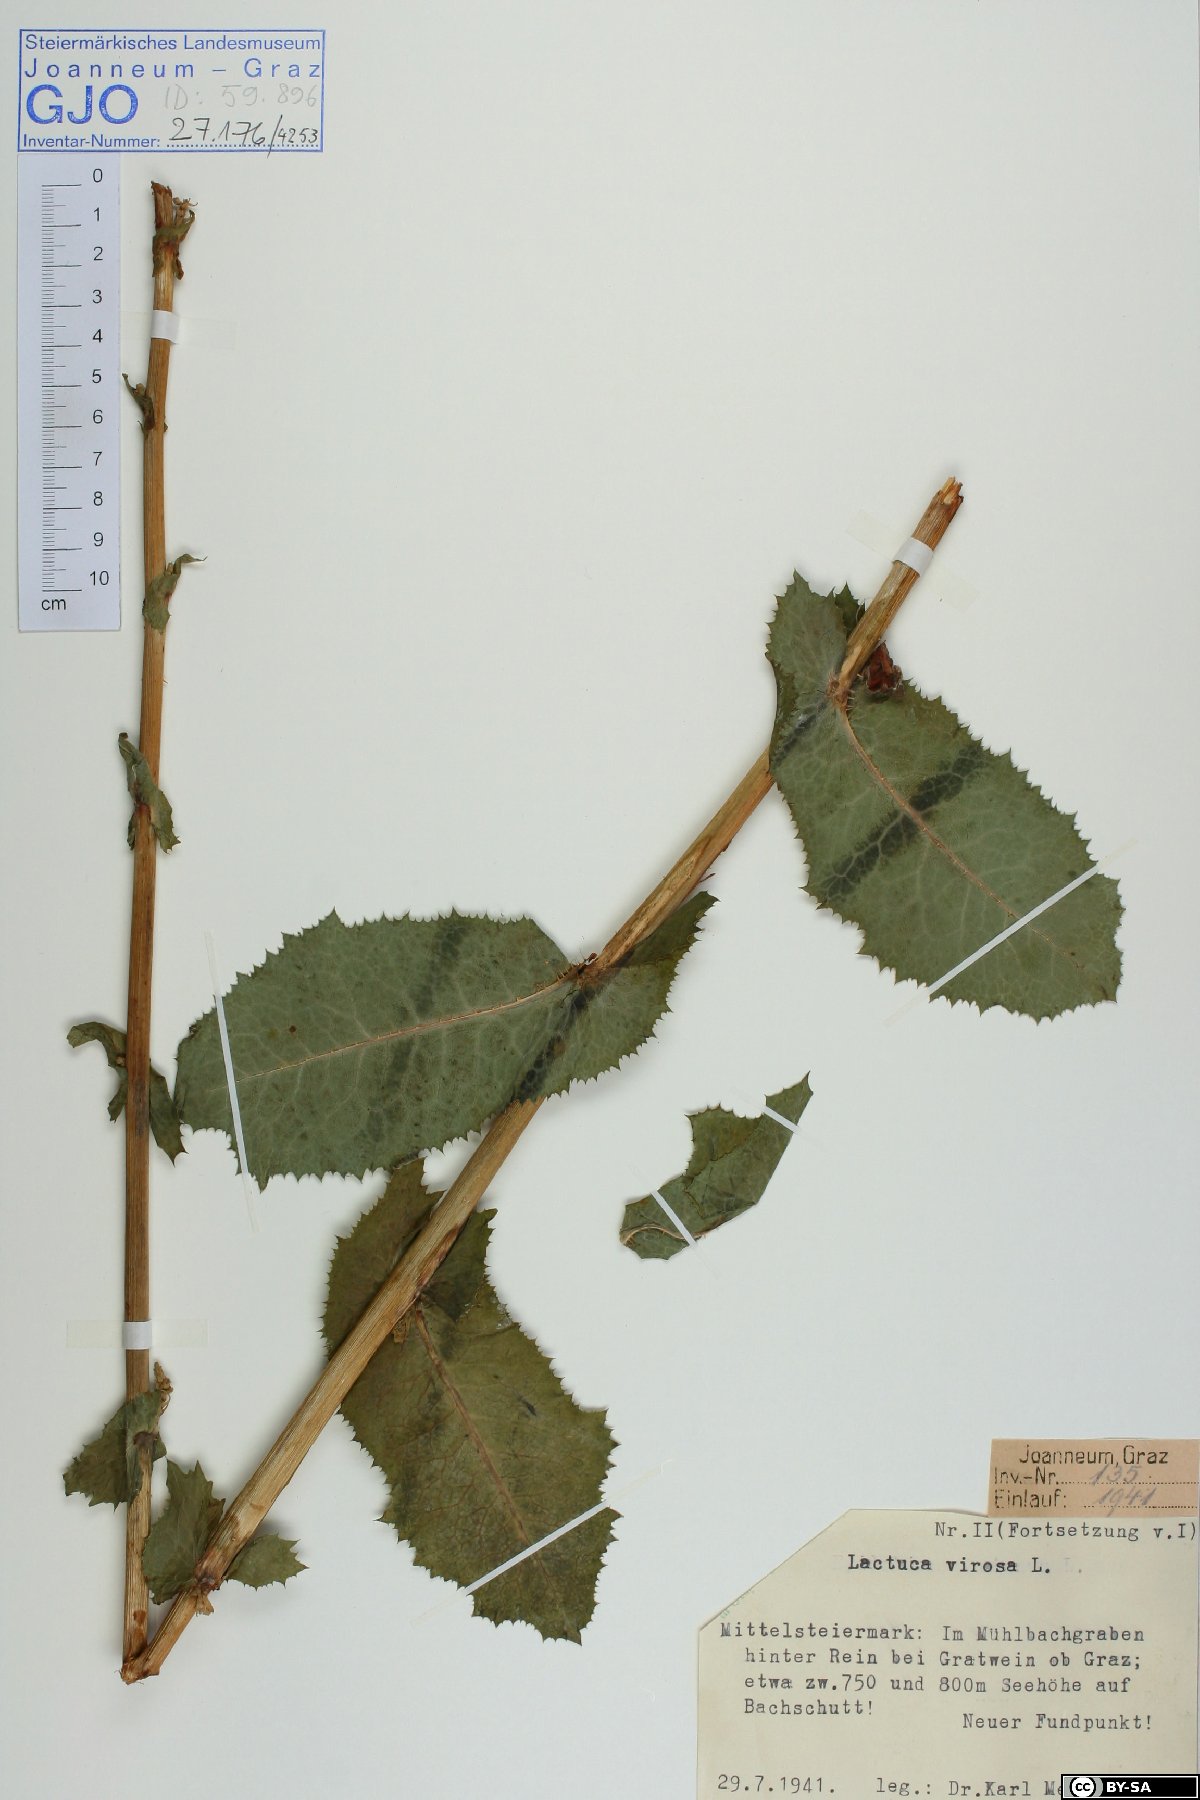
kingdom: Plantae
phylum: Tracheophyta
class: Magnoliopsida
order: Asterales
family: Asteraceae
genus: Lactuca
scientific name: Lactuca virosa
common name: Great lettuce
